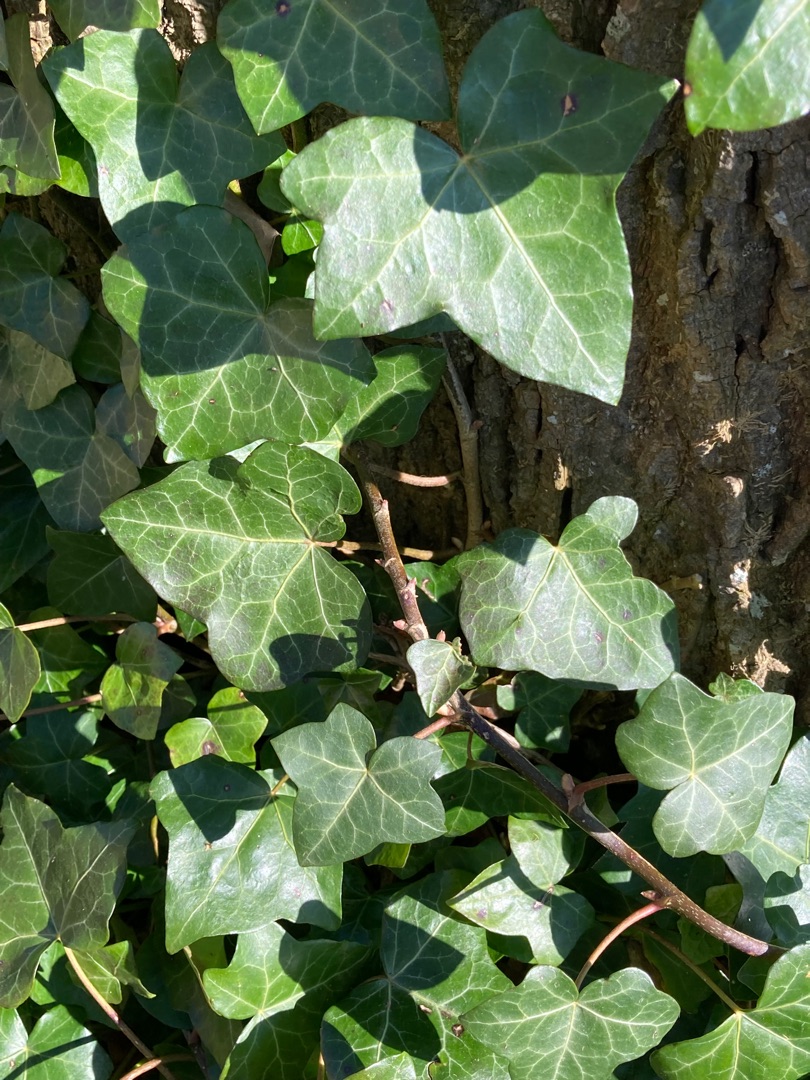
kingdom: Plantae
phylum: Tracheophyta
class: Magnoliopsida
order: Apiales
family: Araliaceae
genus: Hedera
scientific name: Hedera helix
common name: Vedbend
